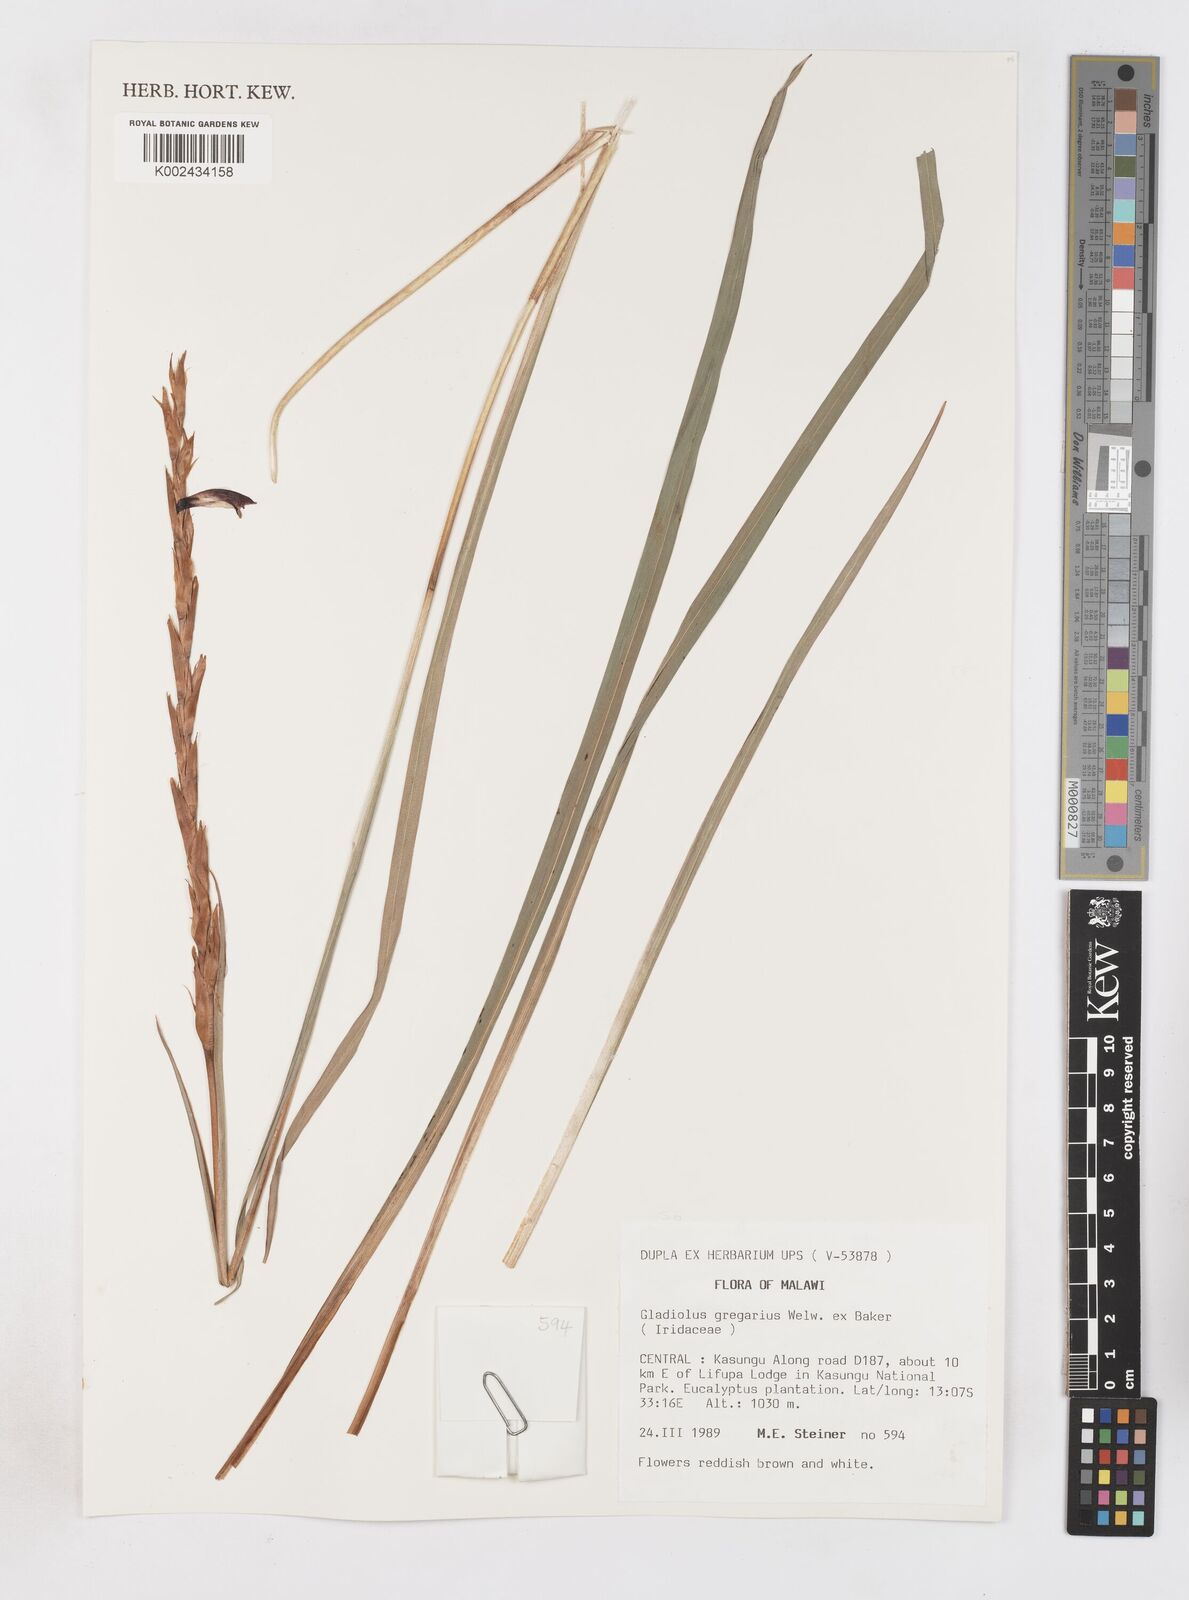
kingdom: Plantae
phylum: Tracheophyta
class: Liliopsida
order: Asparagales
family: Iridaceae
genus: Gladiolus
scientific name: Gladiolus gregarius
